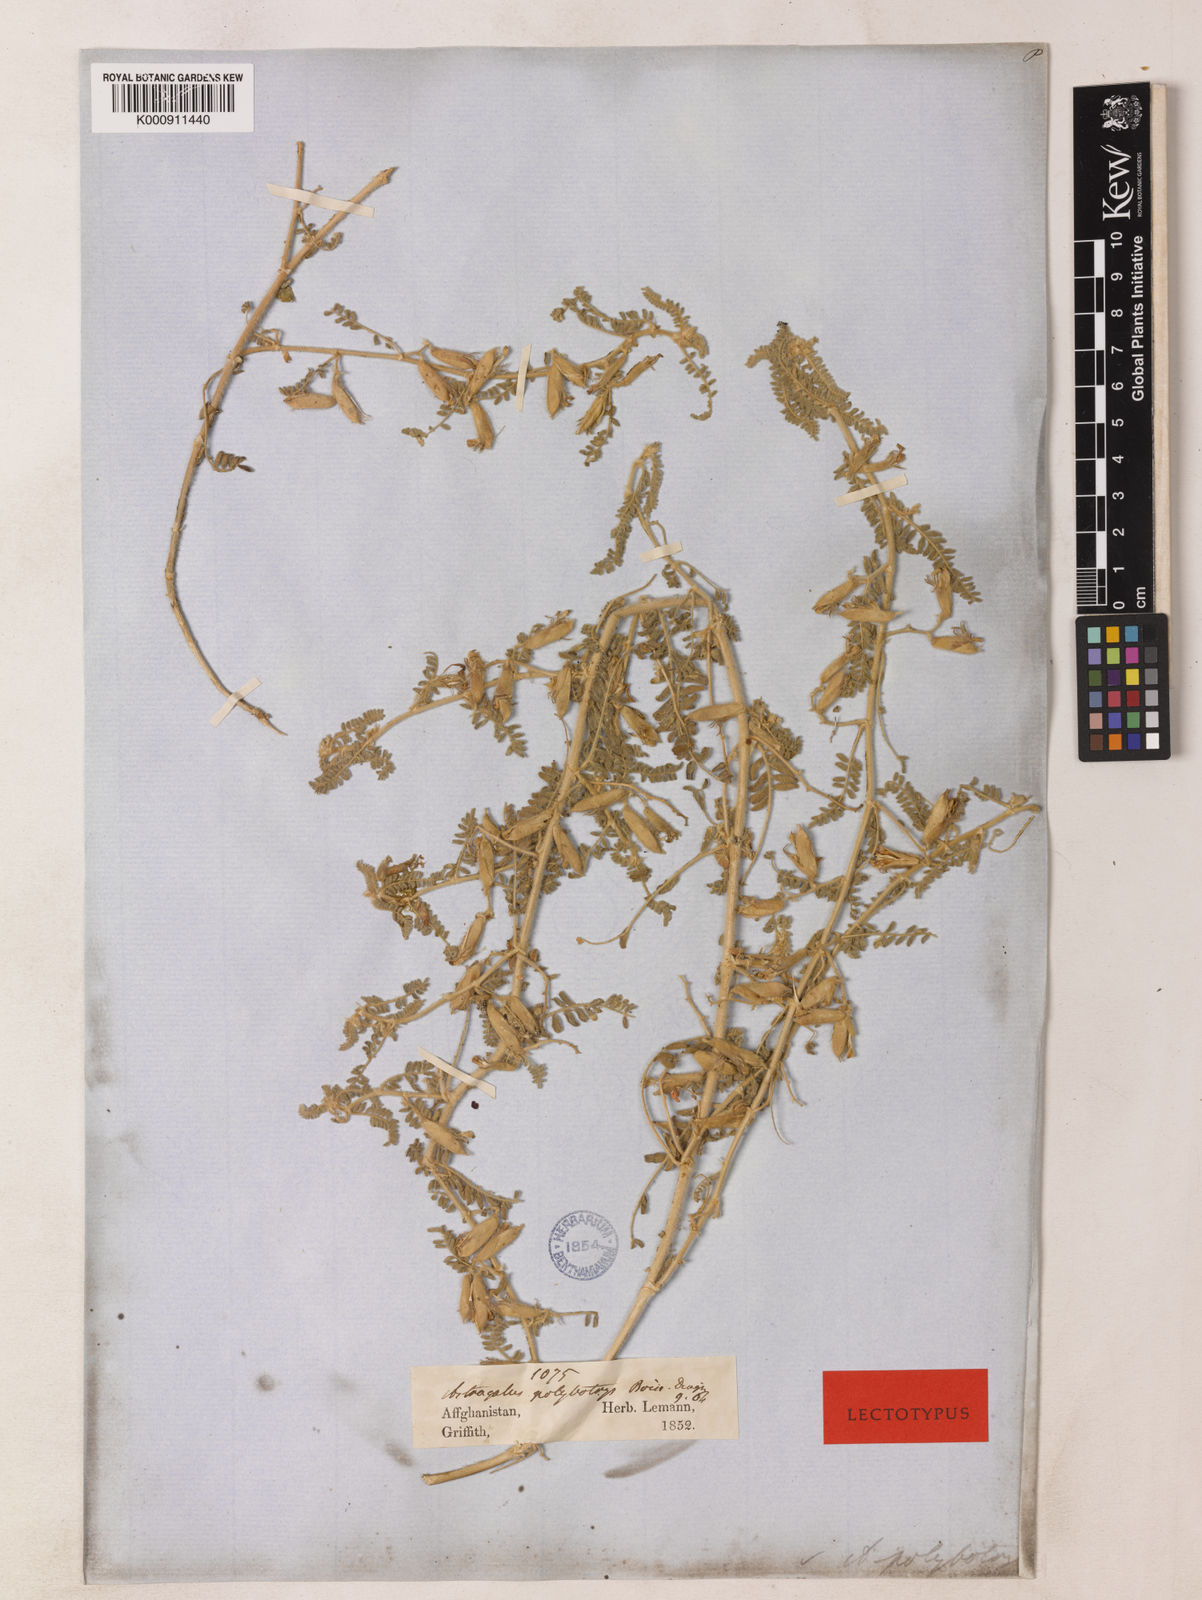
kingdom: Plantae
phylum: Tracheophyta
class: Magnoliopsida
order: Fabales
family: Fabaceae
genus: Astragalus
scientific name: Astragalus polybotrys
